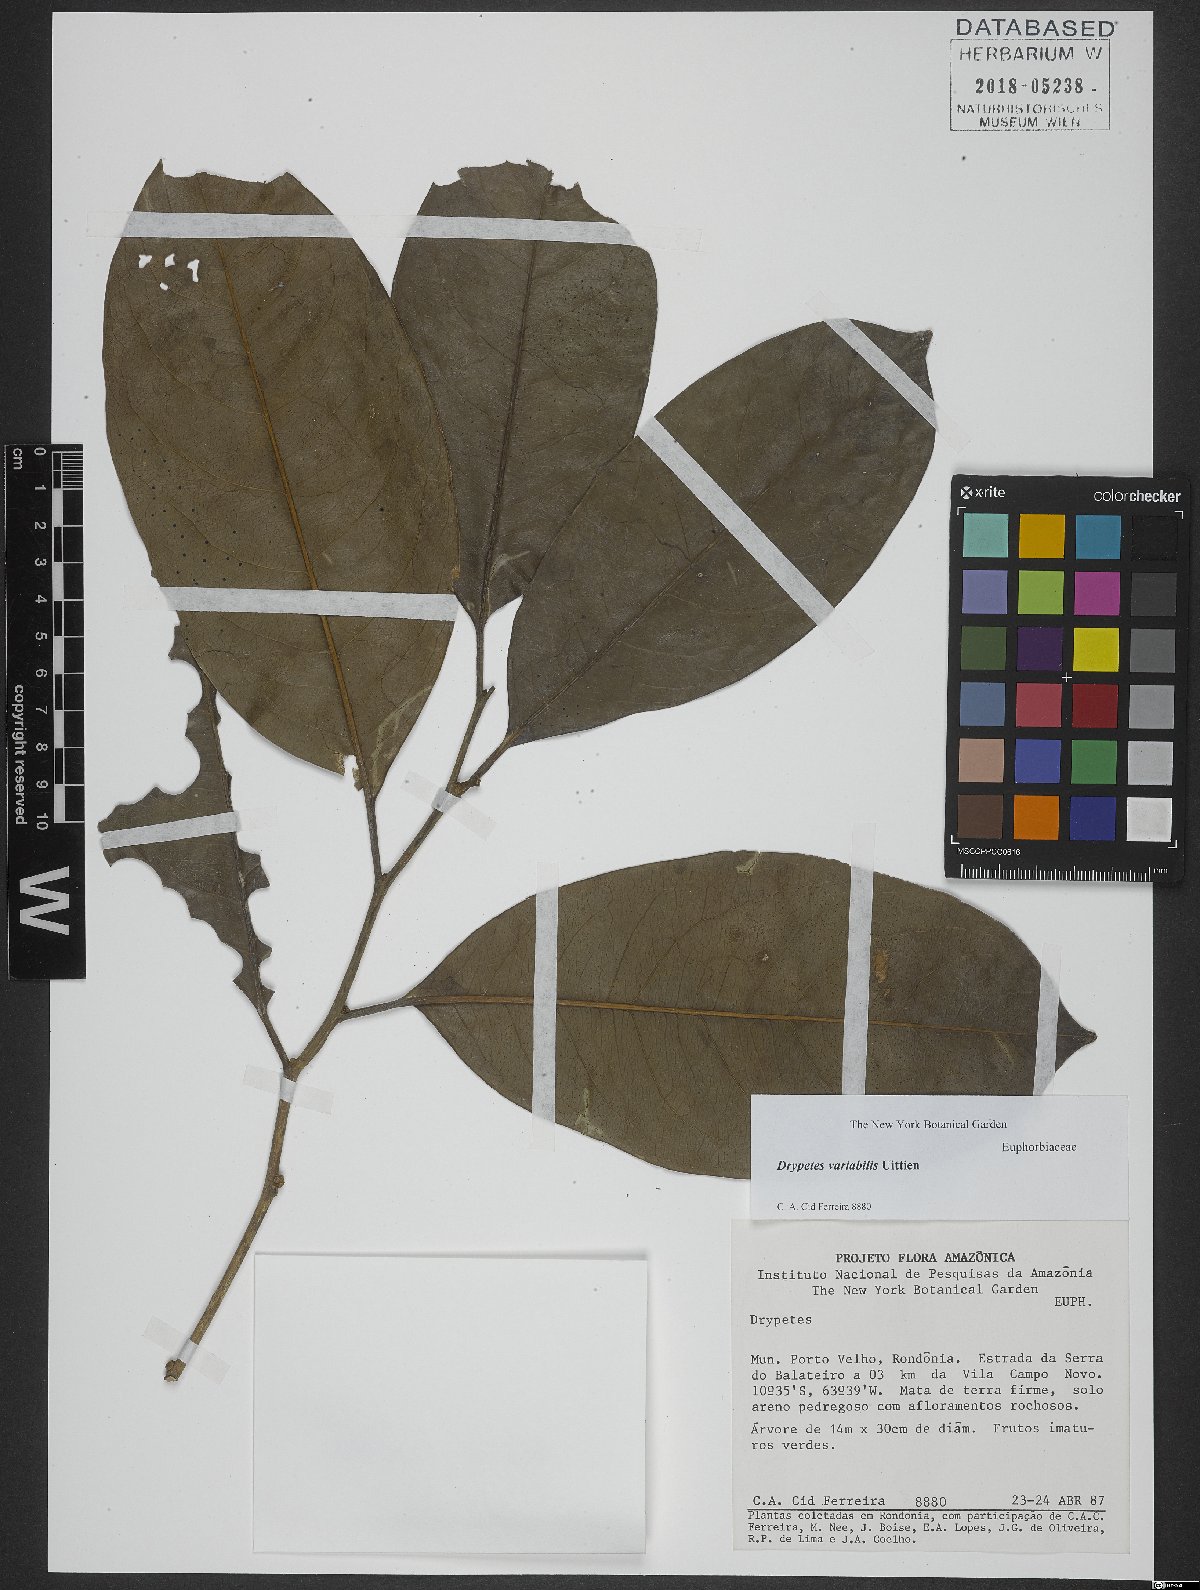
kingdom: Plantae
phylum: Tracheophyta
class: Magnoliopsida
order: Malpighiales
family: Putranjivaceae
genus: Drypetes
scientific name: Drypetes variabilis
